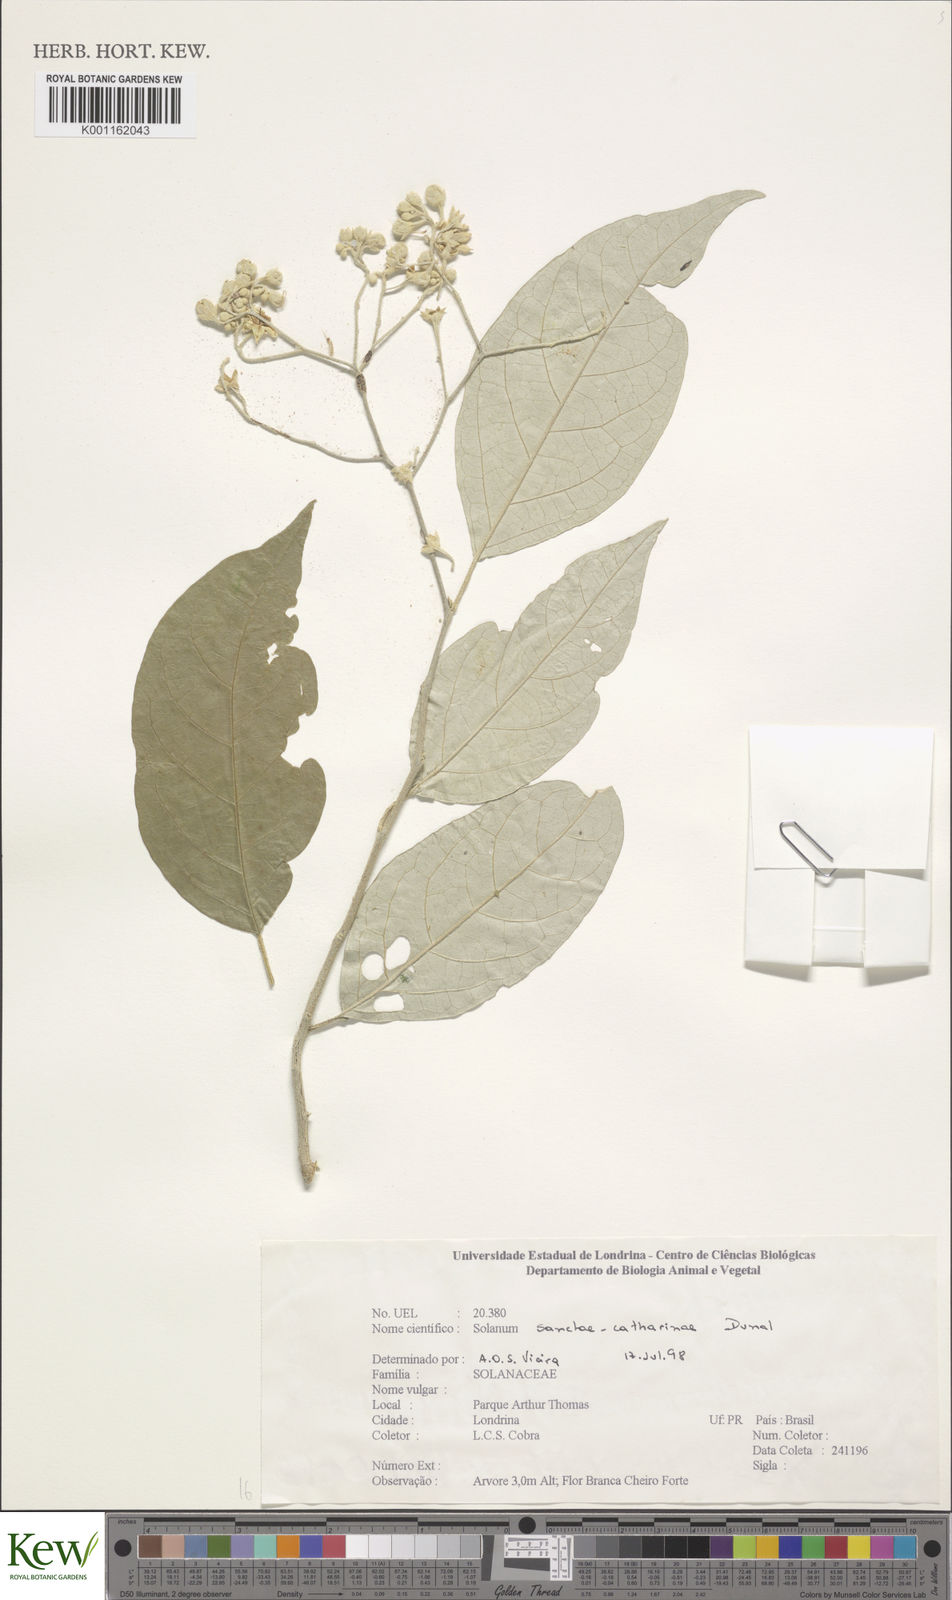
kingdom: Plantae
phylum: Tracheophyta
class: Magnoliopsida
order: Solanales
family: Solanaceae
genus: Solanum
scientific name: Solanum sanctae-catharinae
